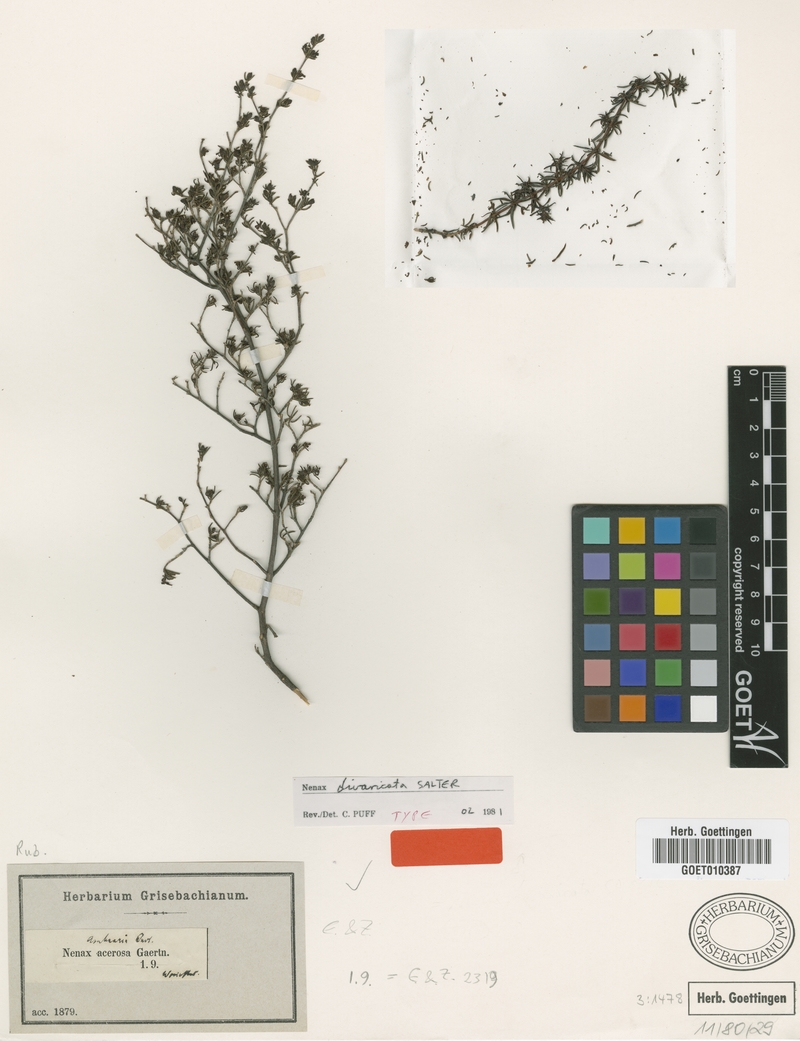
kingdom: Plantae
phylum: Tracheophyta
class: Magnoliopsida
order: Gentianales
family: Rubiaceae
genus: Nenax
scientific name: Nenax divaricata
